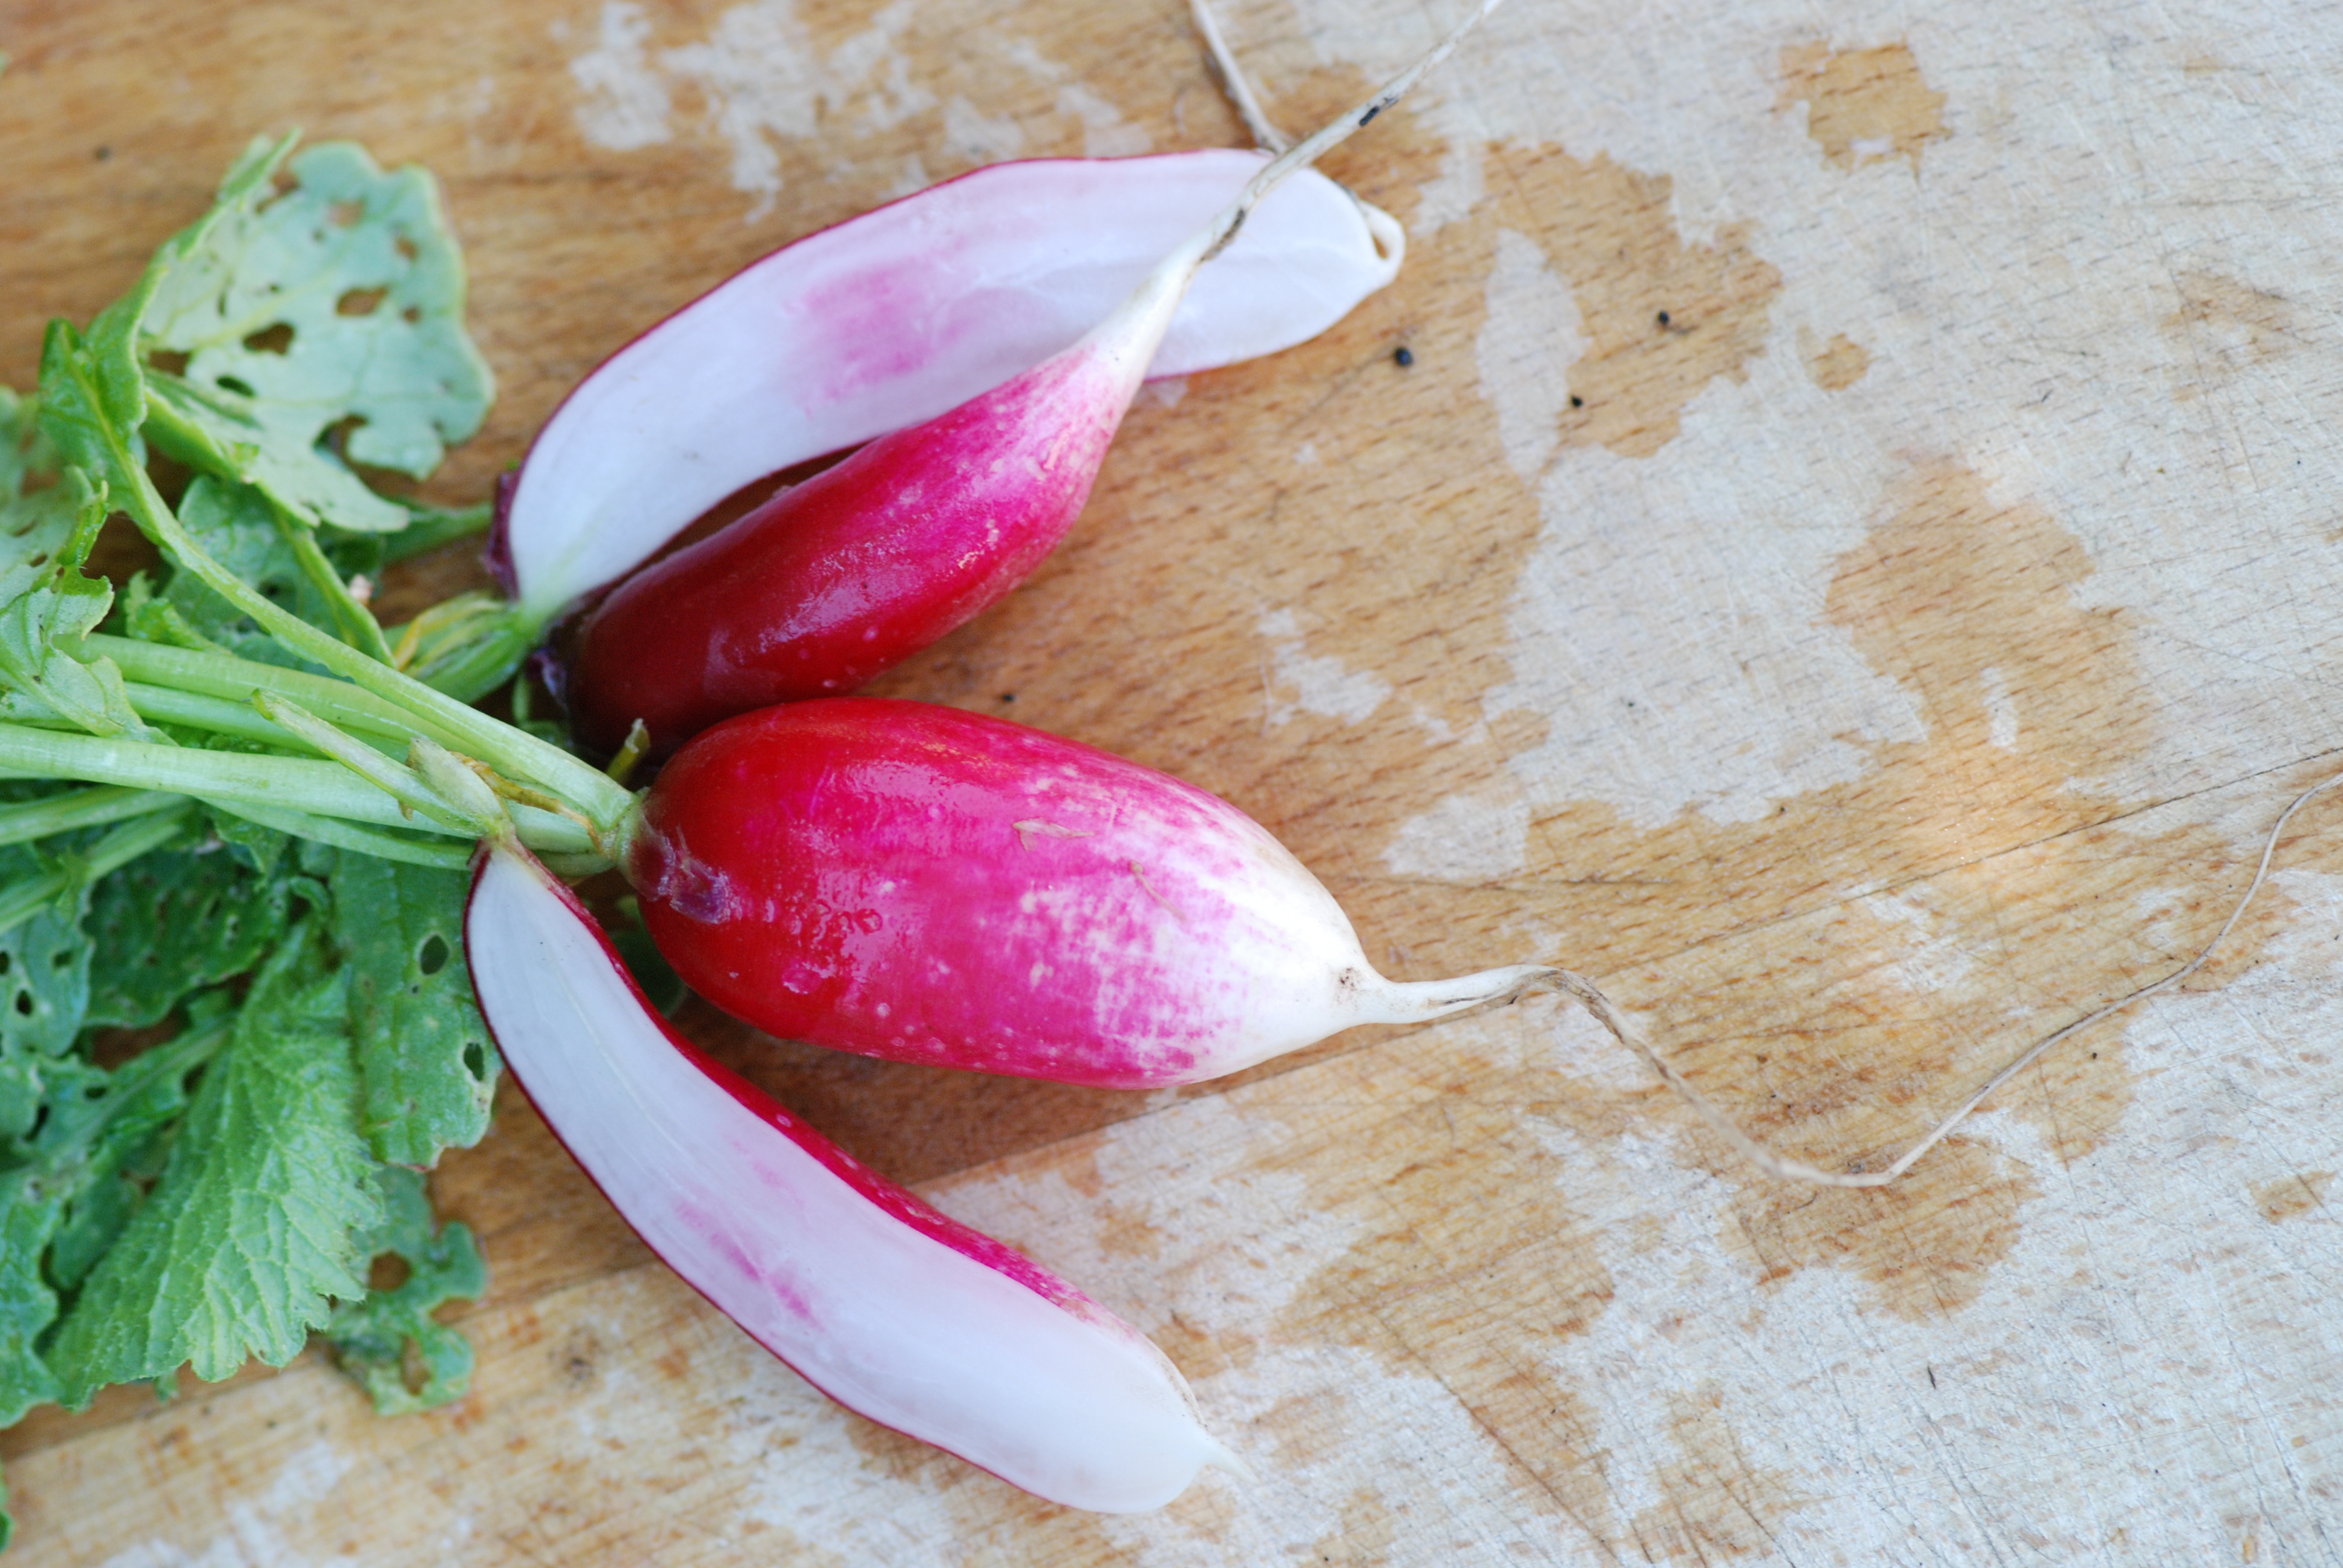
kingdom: Plantae
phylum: Tracheophyta
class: Magnoliopsida
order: Brassicales
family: Brassicaceae
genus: Raphanus
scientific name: Raphanus sativus
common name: Cultivated radish
